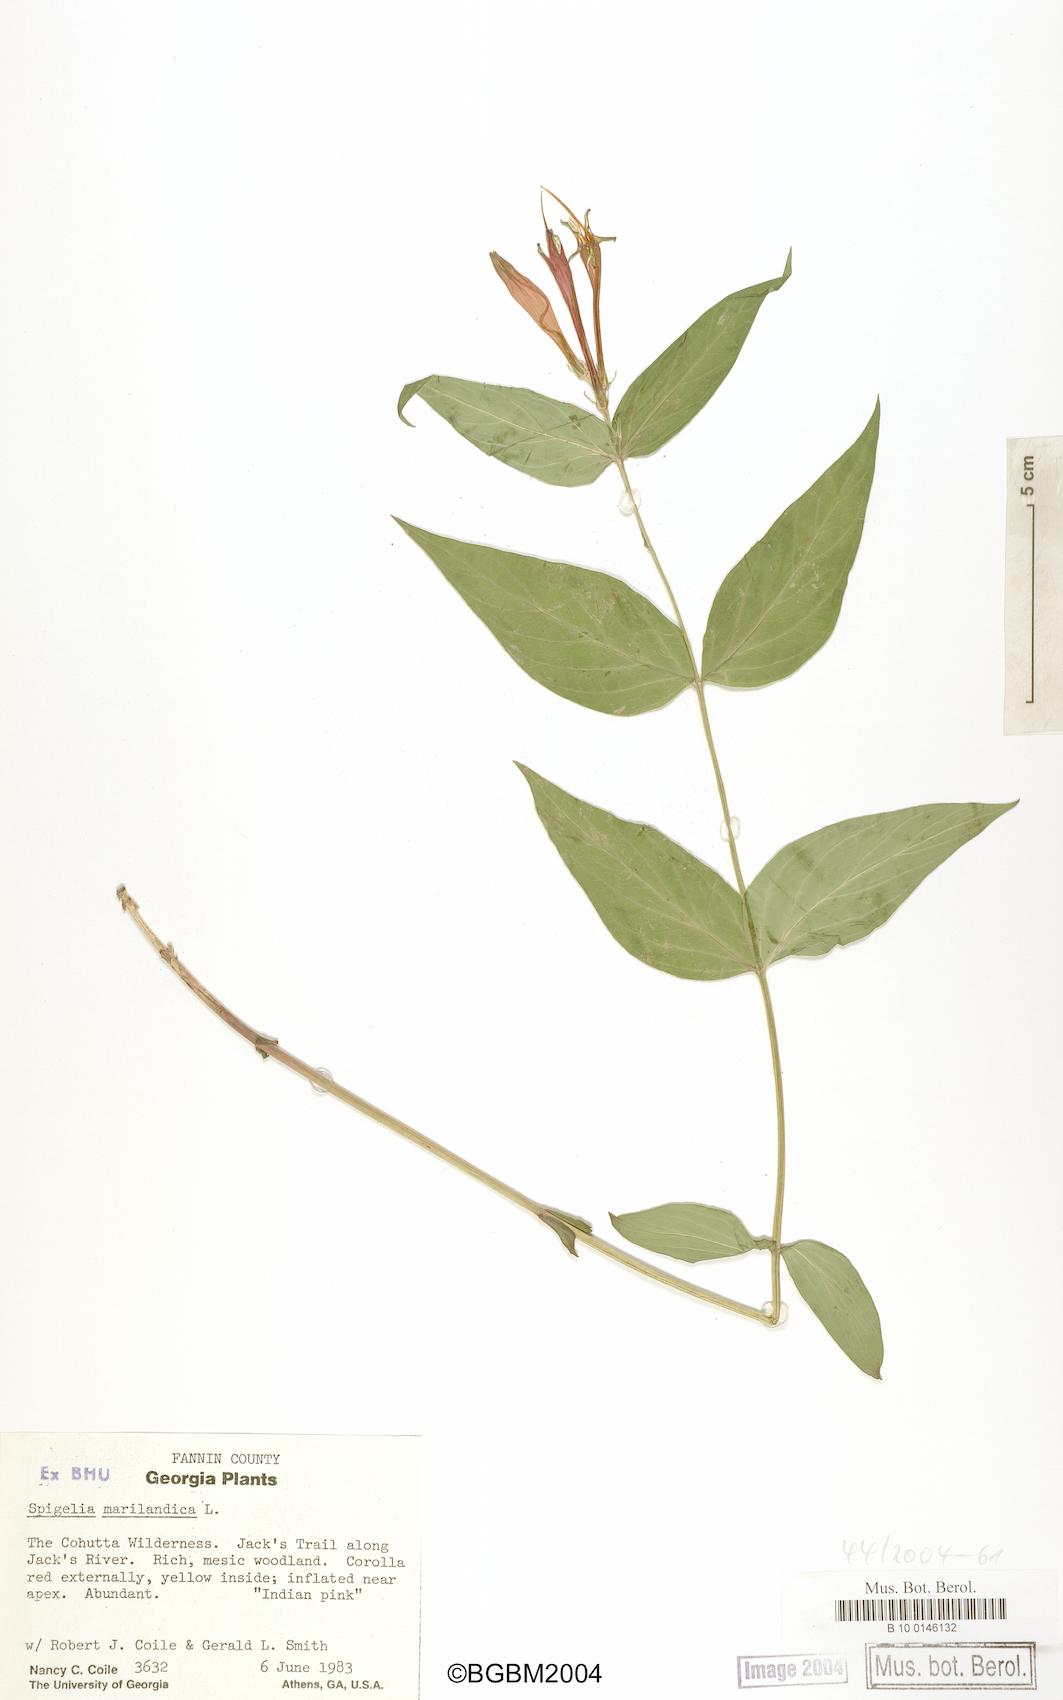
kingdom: Plantae
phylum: Tracheophyta
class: Magnoliopsida
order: Gentianales
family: Loganiaceae
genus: Spigelia
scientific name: Spigelia marilandica
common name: Indian-pink
